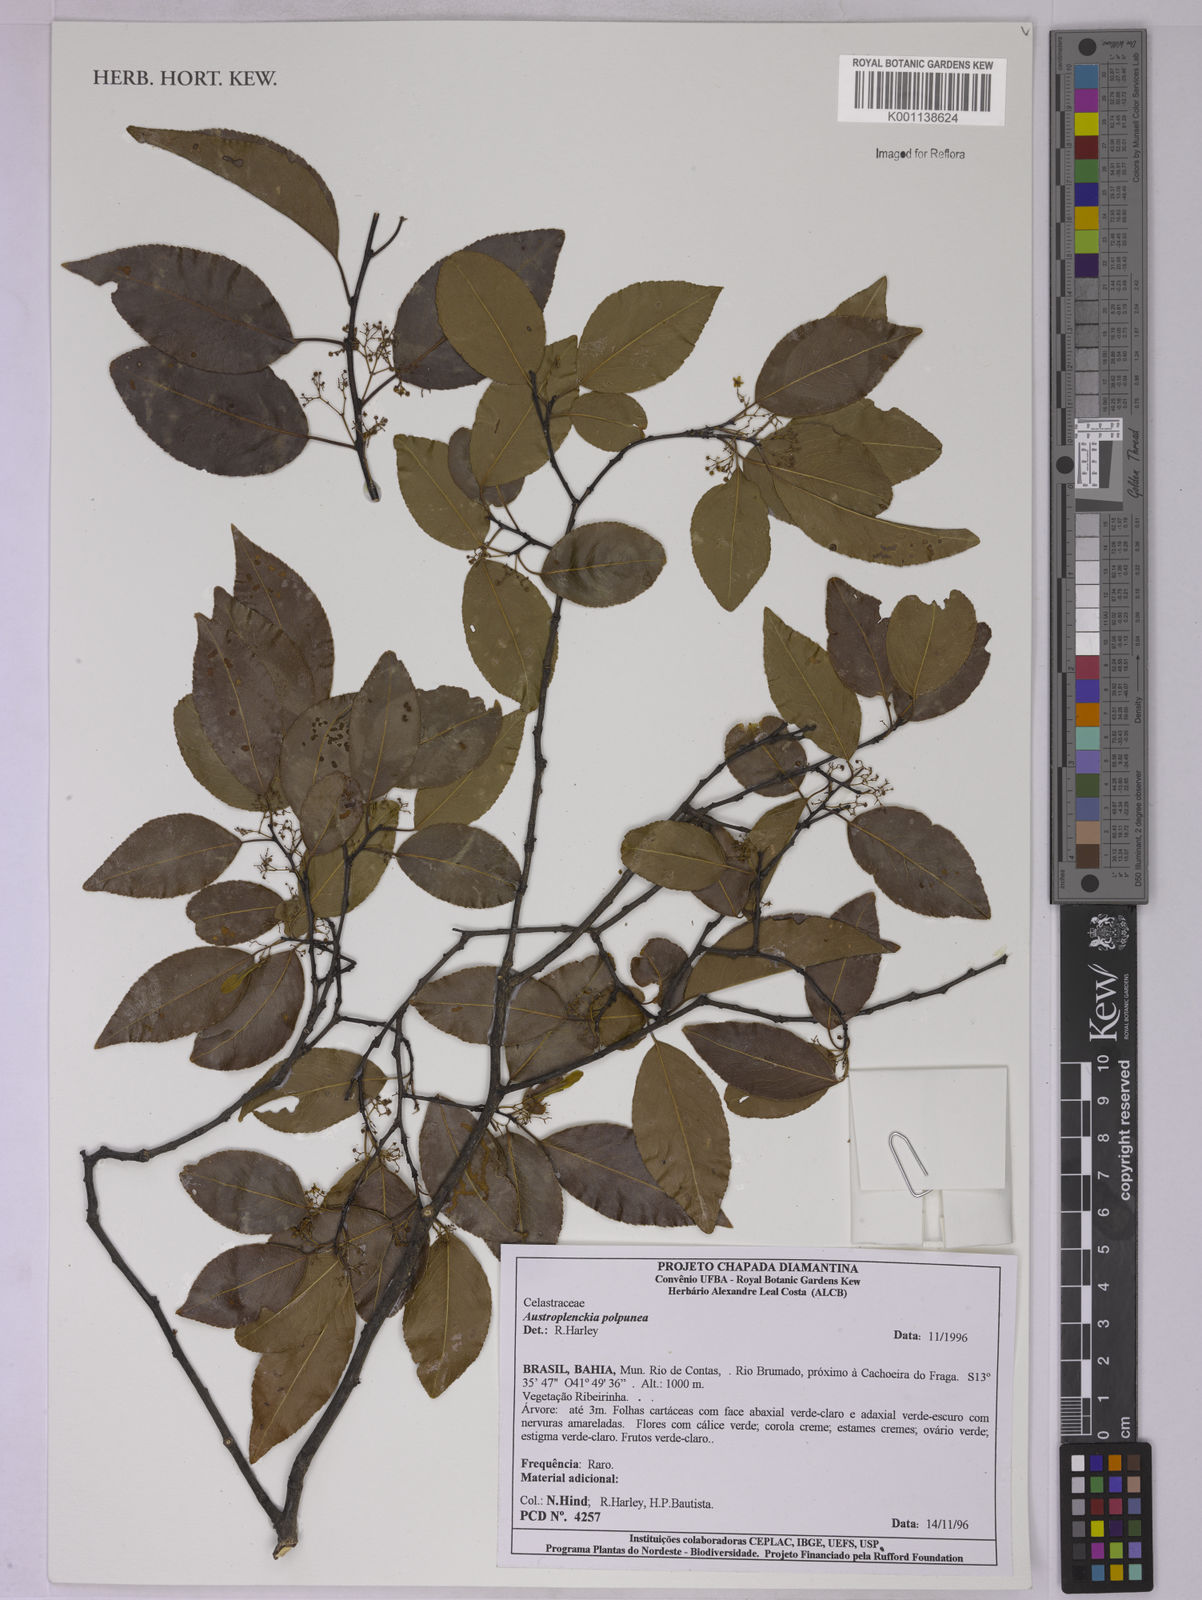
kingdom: Plantae
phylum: Tracheophyta
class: Magnoliopsida
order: Celastrales
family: Celastraceae
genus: Plenckia
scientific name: Plenckia populnea
